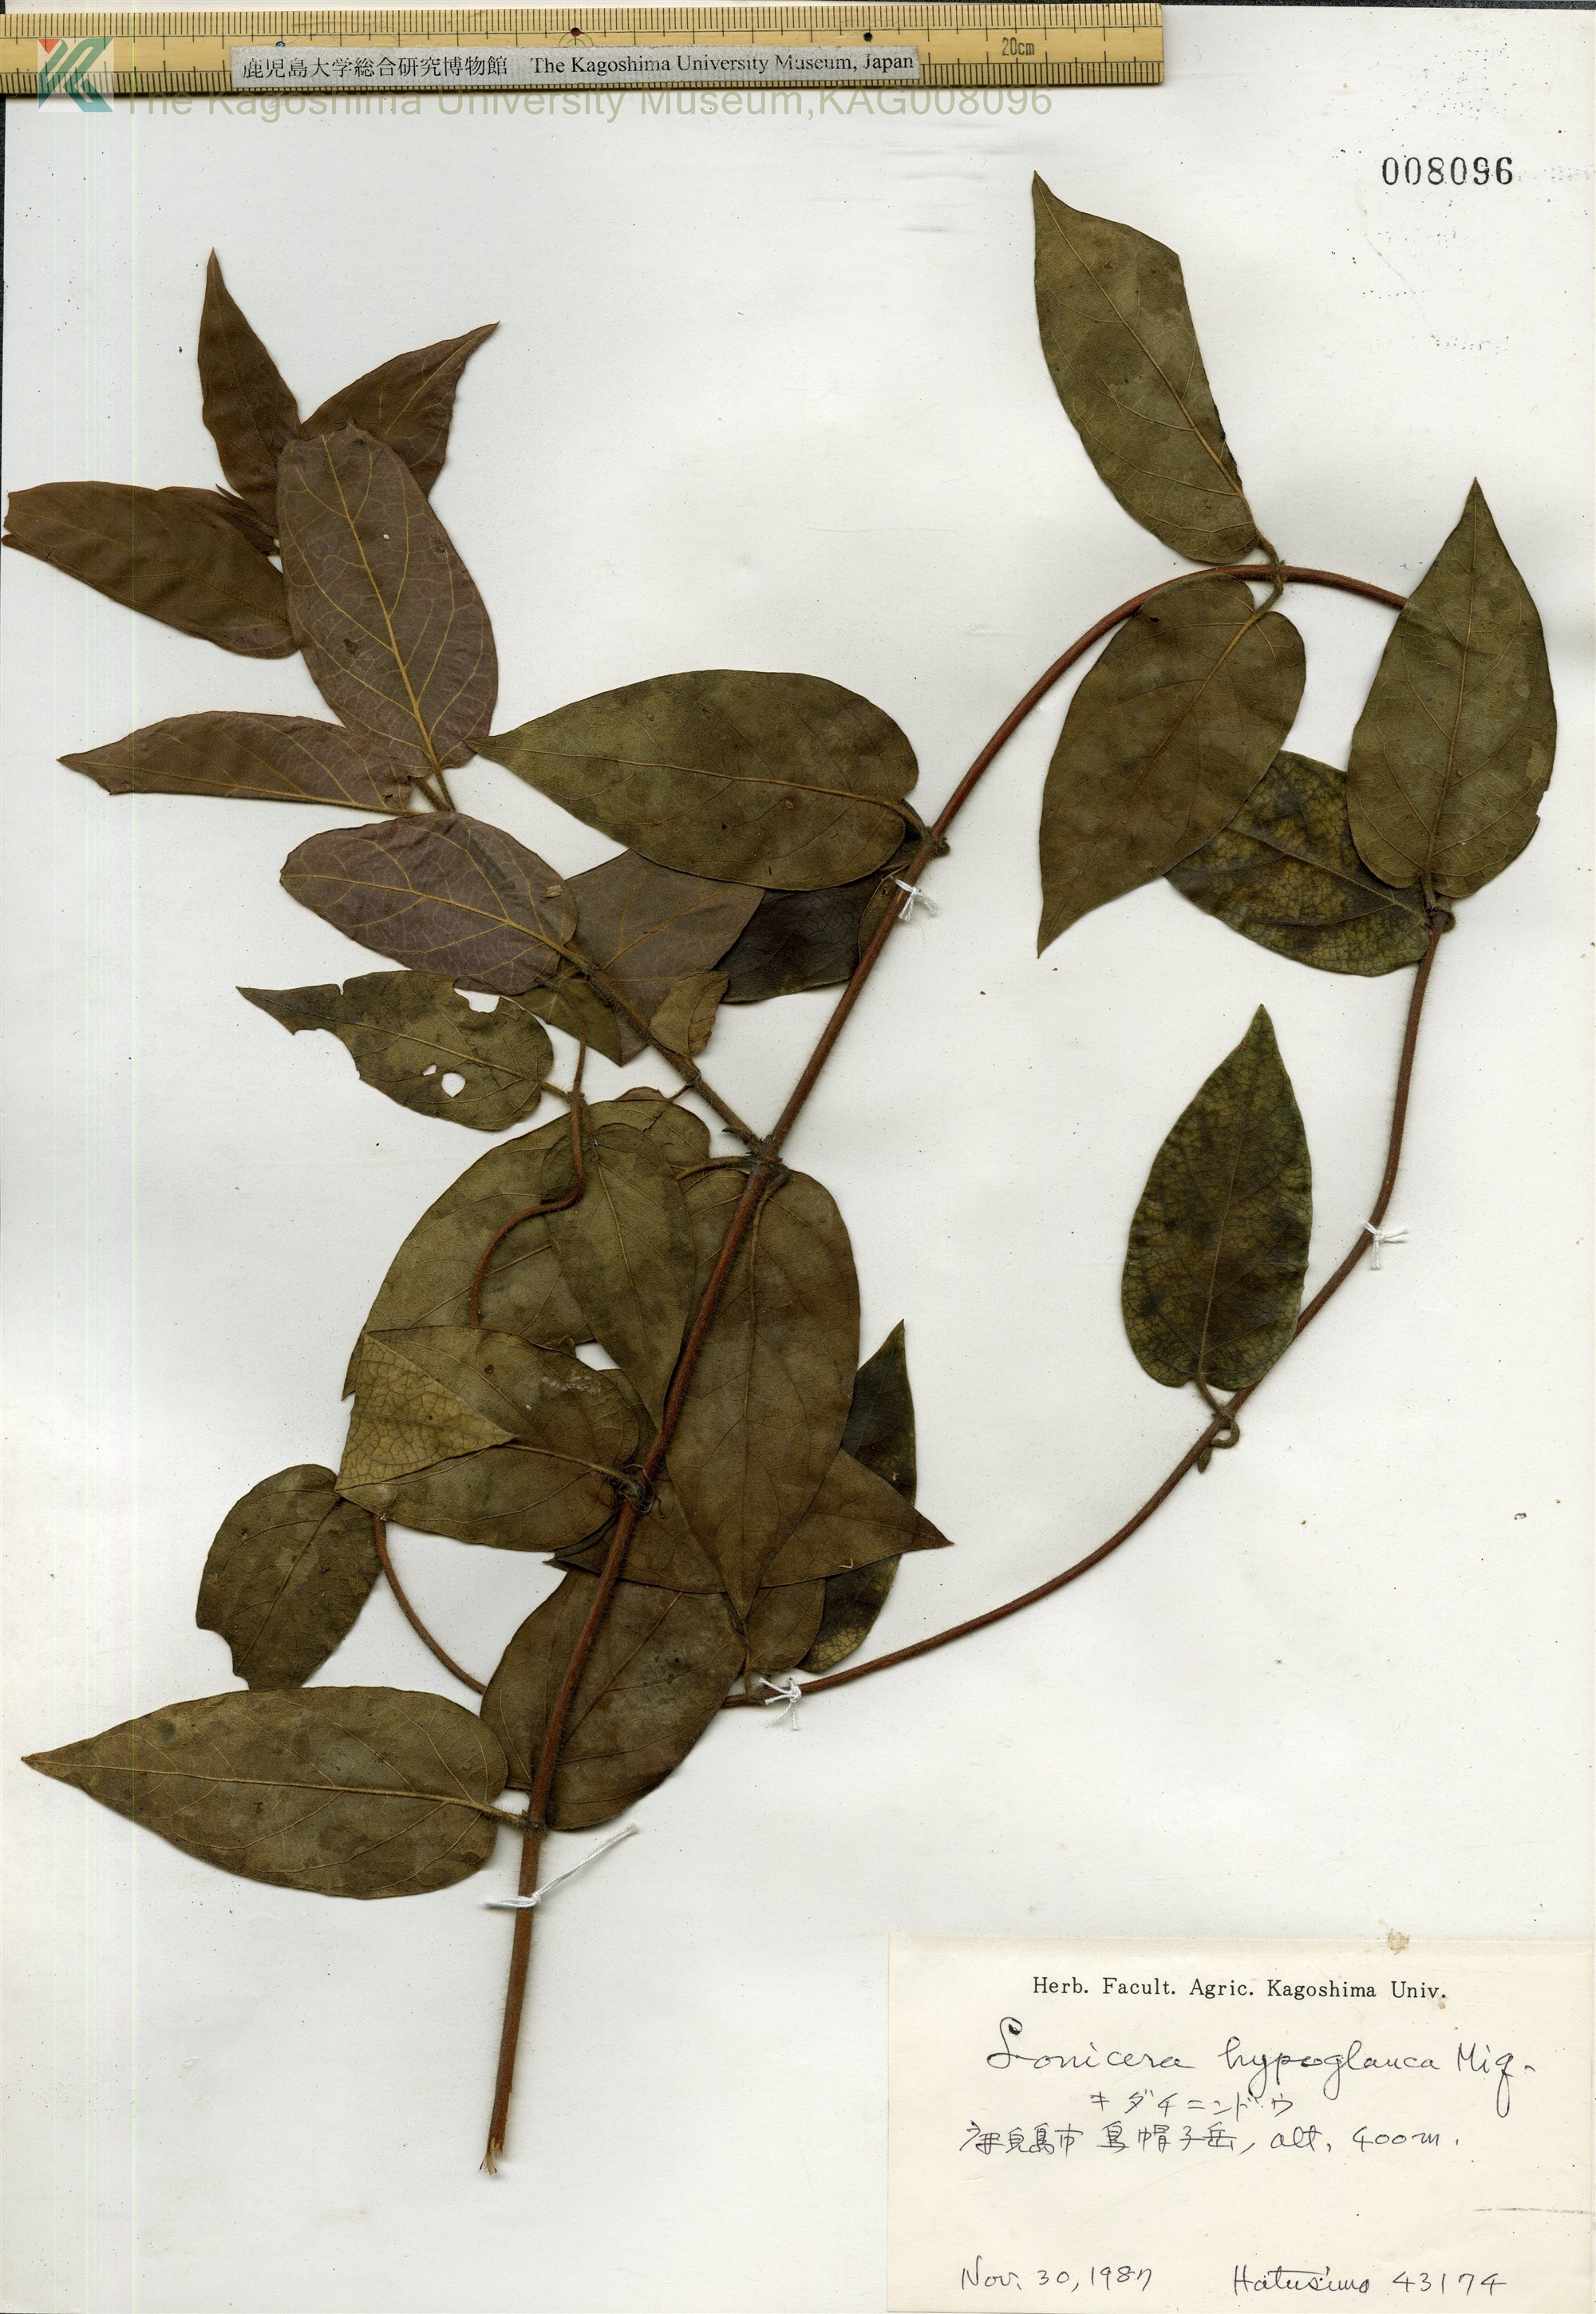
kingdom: Plantae
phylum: Tracheophyta
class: Magnoliopsida
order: Dipsacales
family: Caprifoliaceae
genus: Lonicera
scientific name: Lonicera hypoglauca
